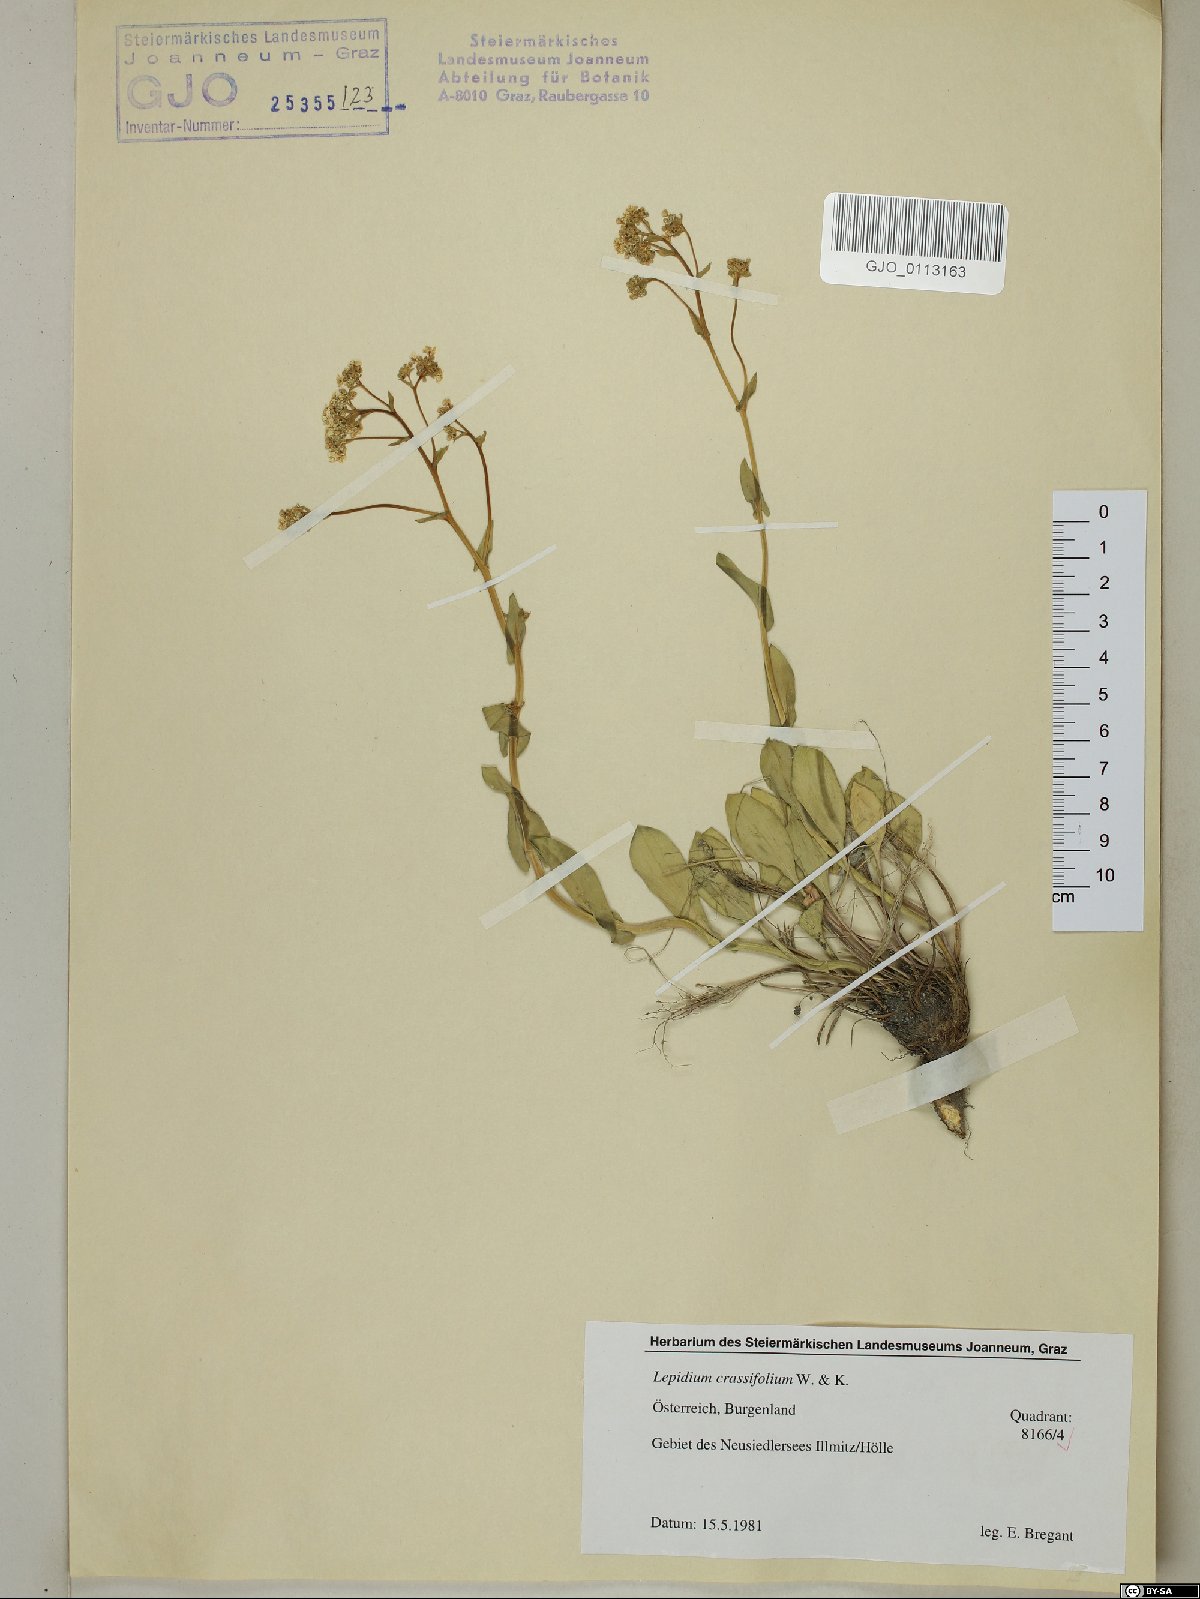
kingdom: Plantae
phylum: Tracheophyta
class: Magnoliopsida
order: Brassicales
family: Brassicaceae
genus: Lepidium
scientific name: Lepidium cartilagineum
